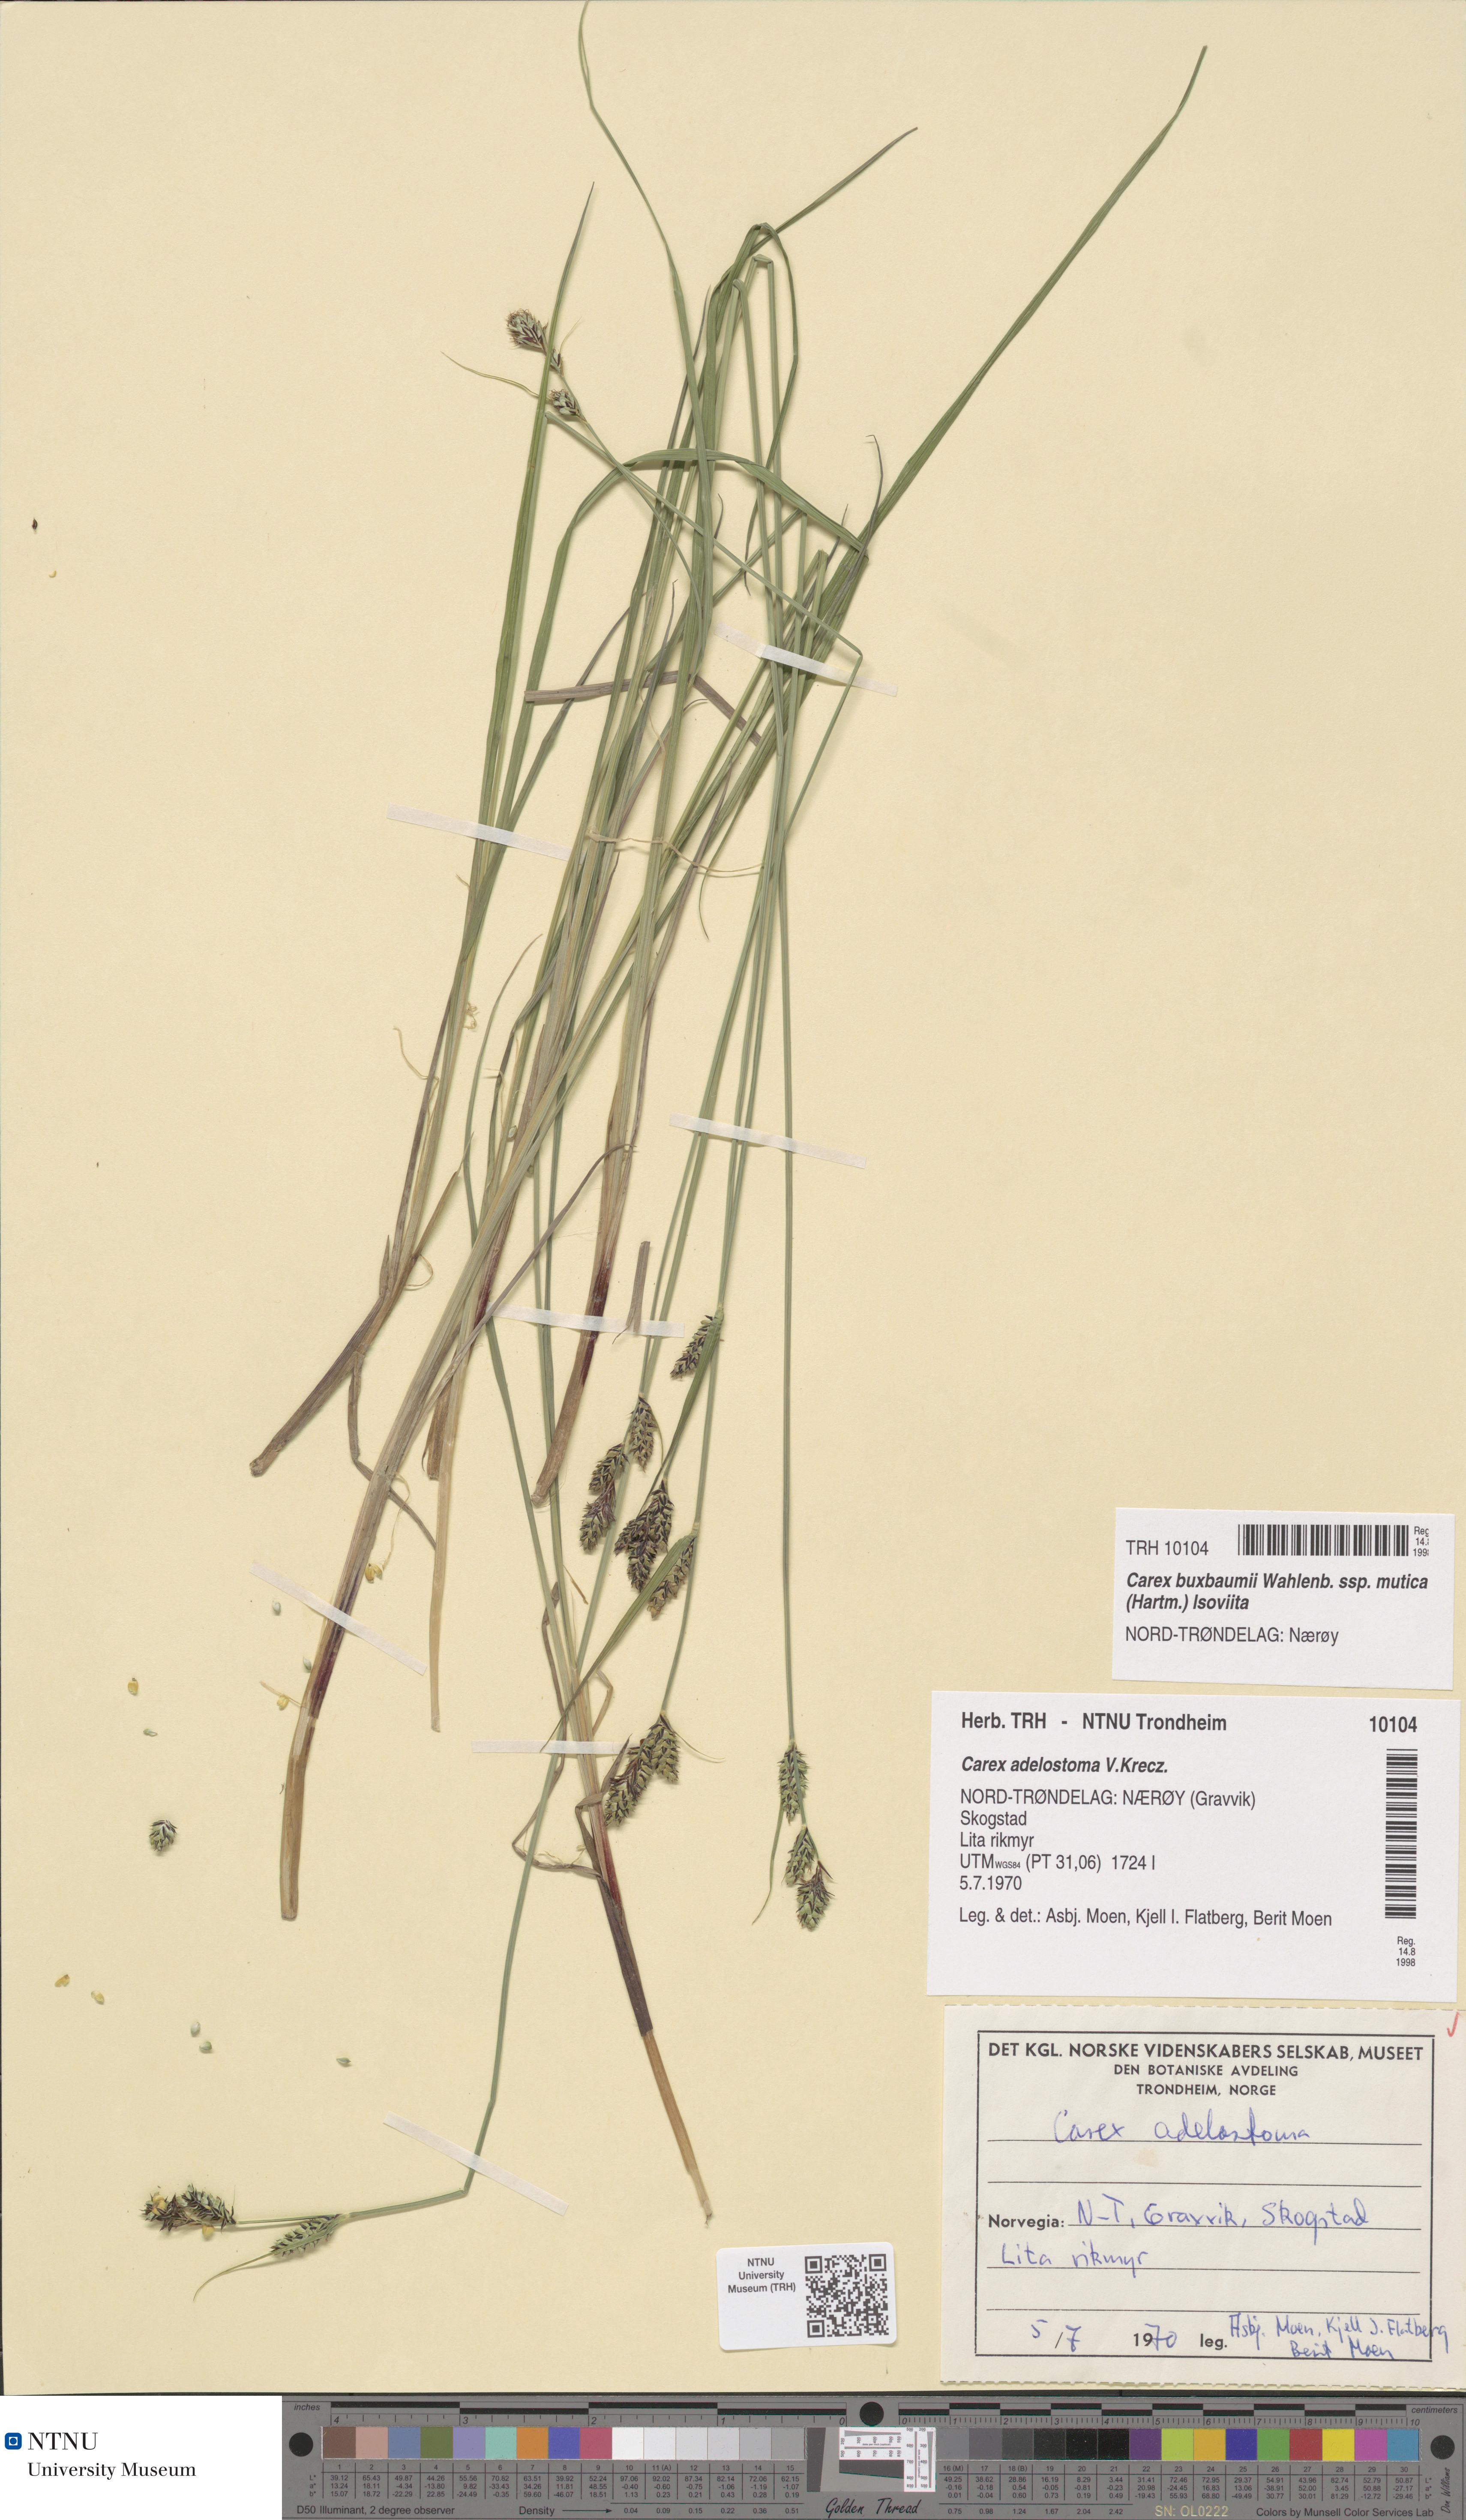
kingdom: Plantae
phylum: Tracheophyta
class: Liliopsida
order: Poales
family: Cyperaceae
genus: Carex
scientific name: Carex adelostoma
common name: Circumpolar sedge
